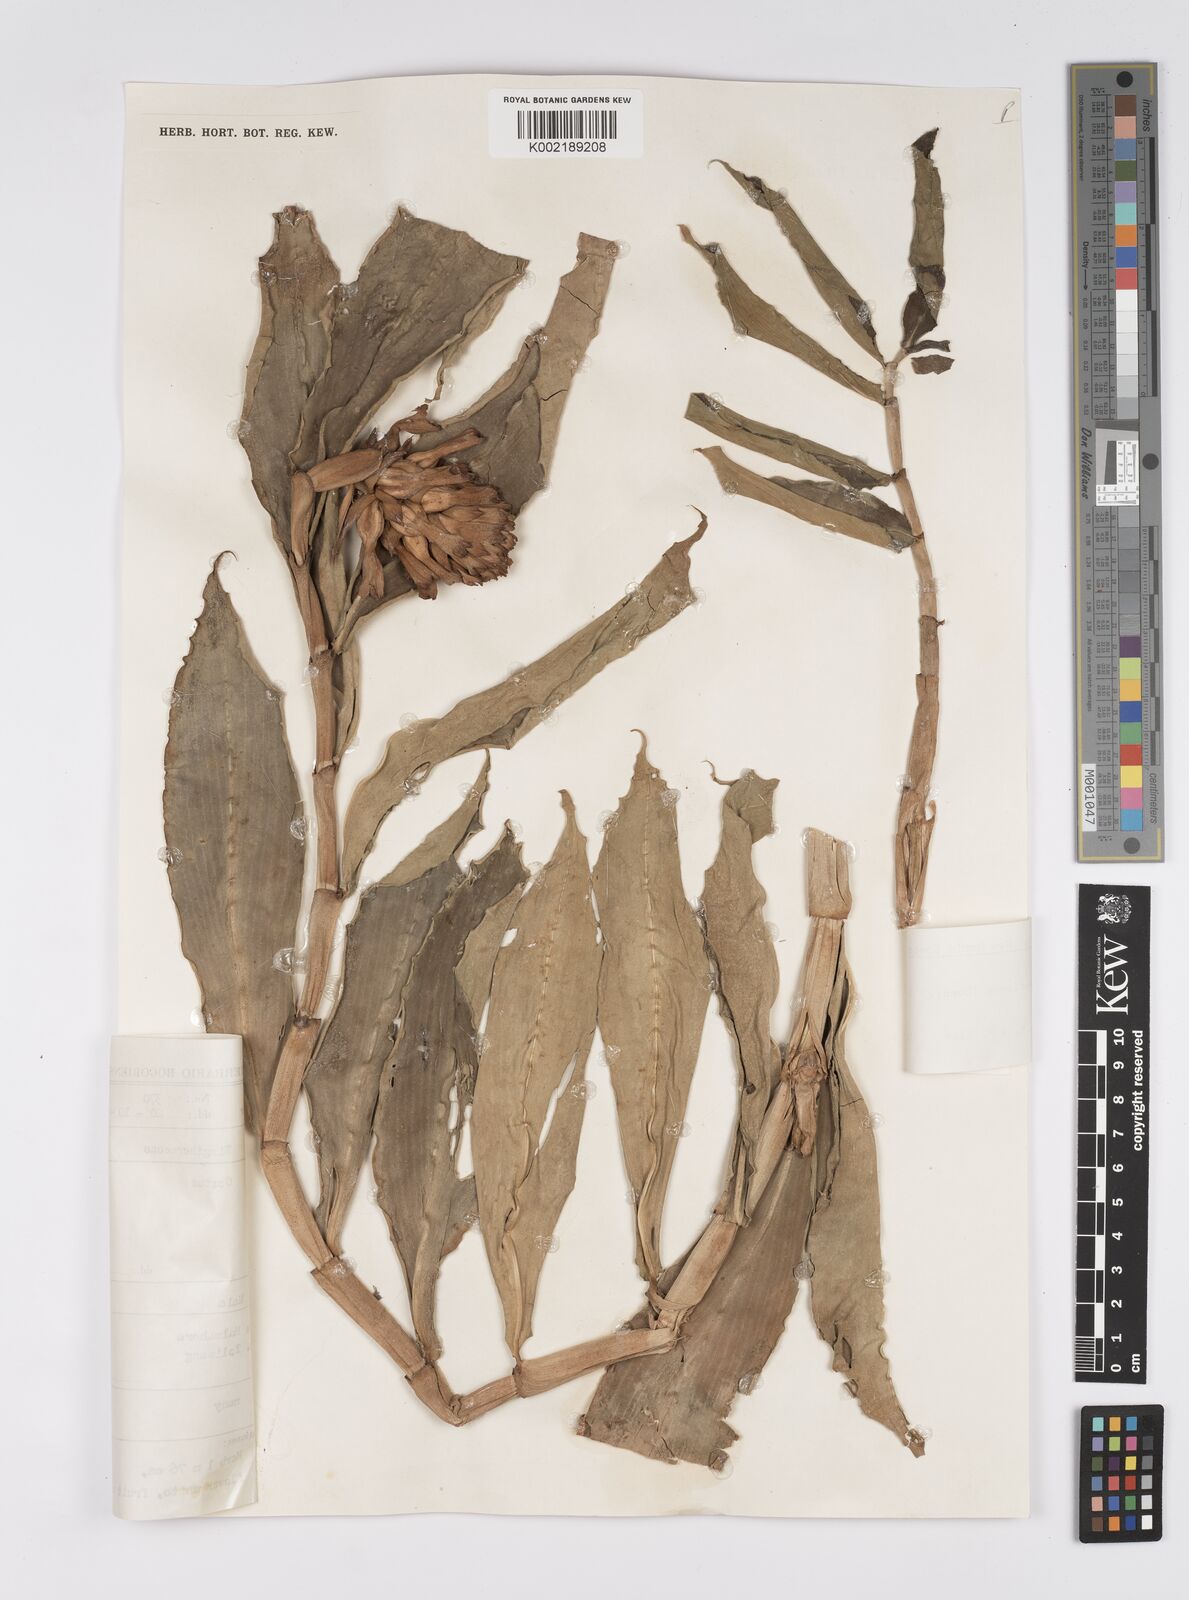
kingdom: Plantae
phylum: Tracheophyta
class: Liliopsida
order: Zingiberales
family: Costaceae
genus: Hellenia
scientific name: Hellenia speciosa
